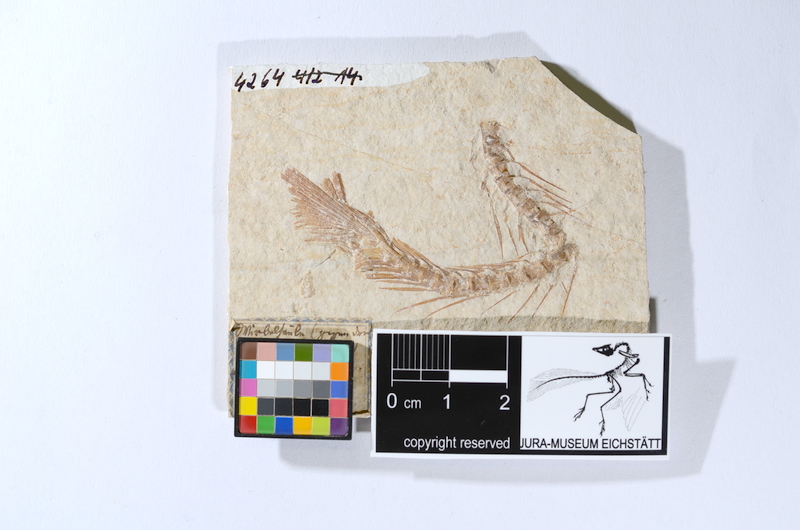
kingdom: Animalia
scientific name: Animalia
